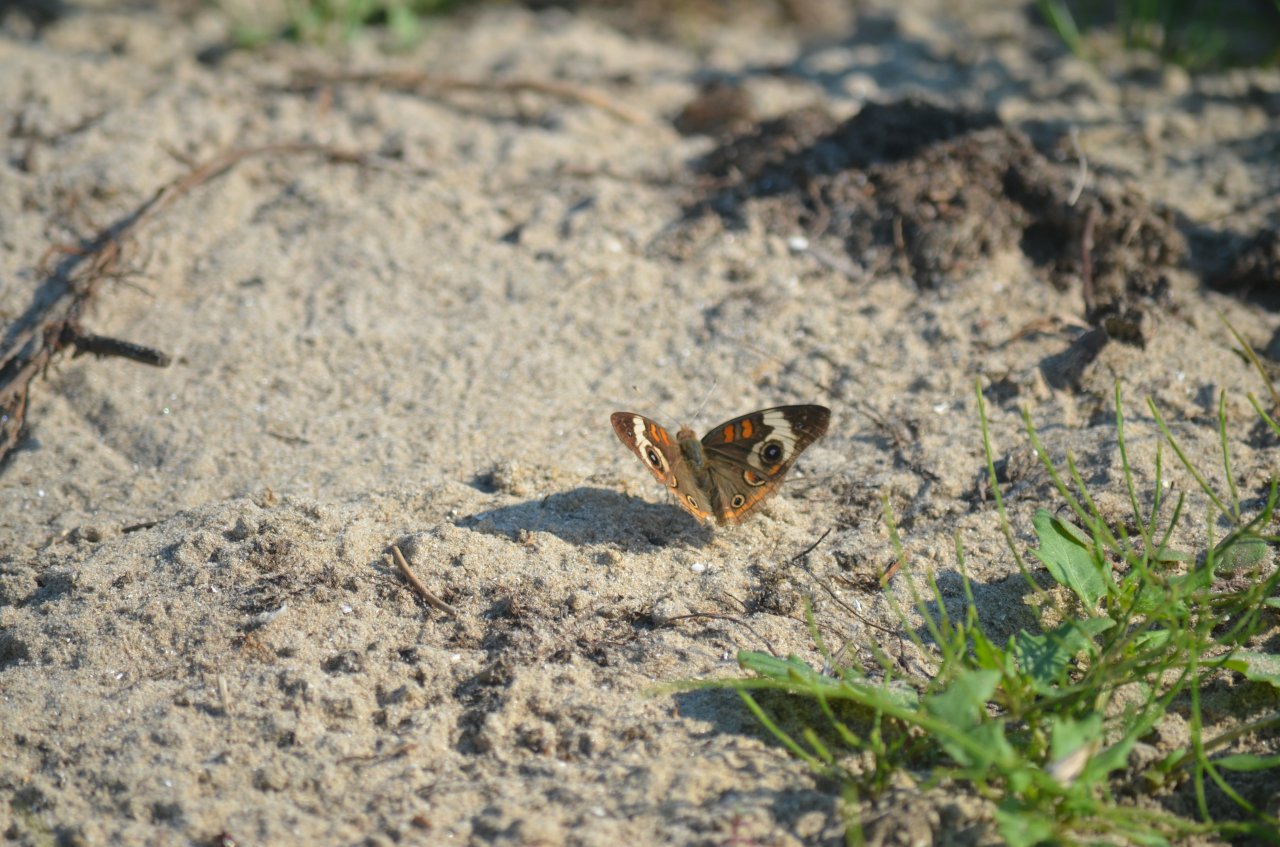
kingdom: Animalia
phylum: Arthropoda
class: Insecta
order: Lepidoptera
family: Nymphalidae
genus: Junonia
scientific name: Junonia coenia
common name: Common Buckeye
